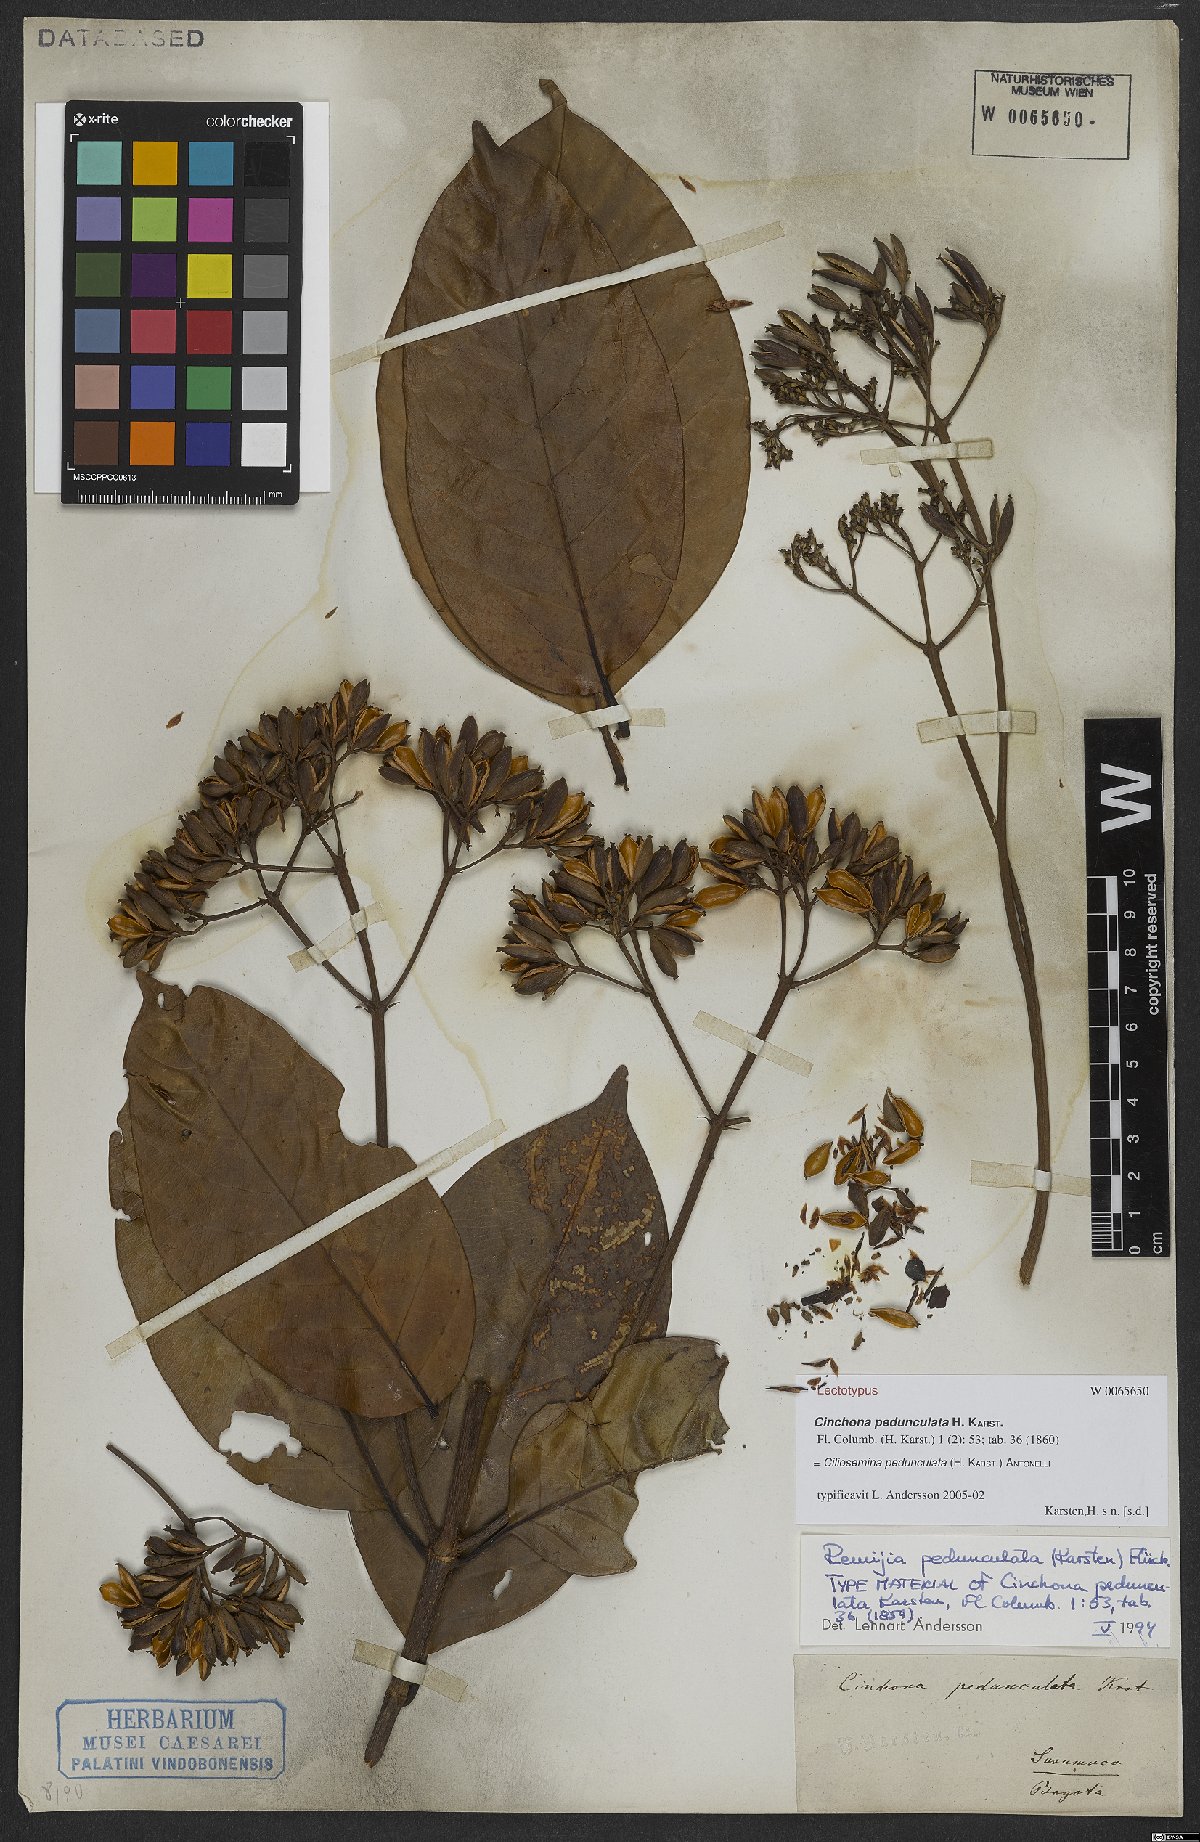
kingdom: Plantae
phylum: Tracheophyta
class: Magnoliopsida
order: Gentianales
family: Rubiaceae
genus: Ciliosemina
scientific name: Ciliosemina pedunculata
